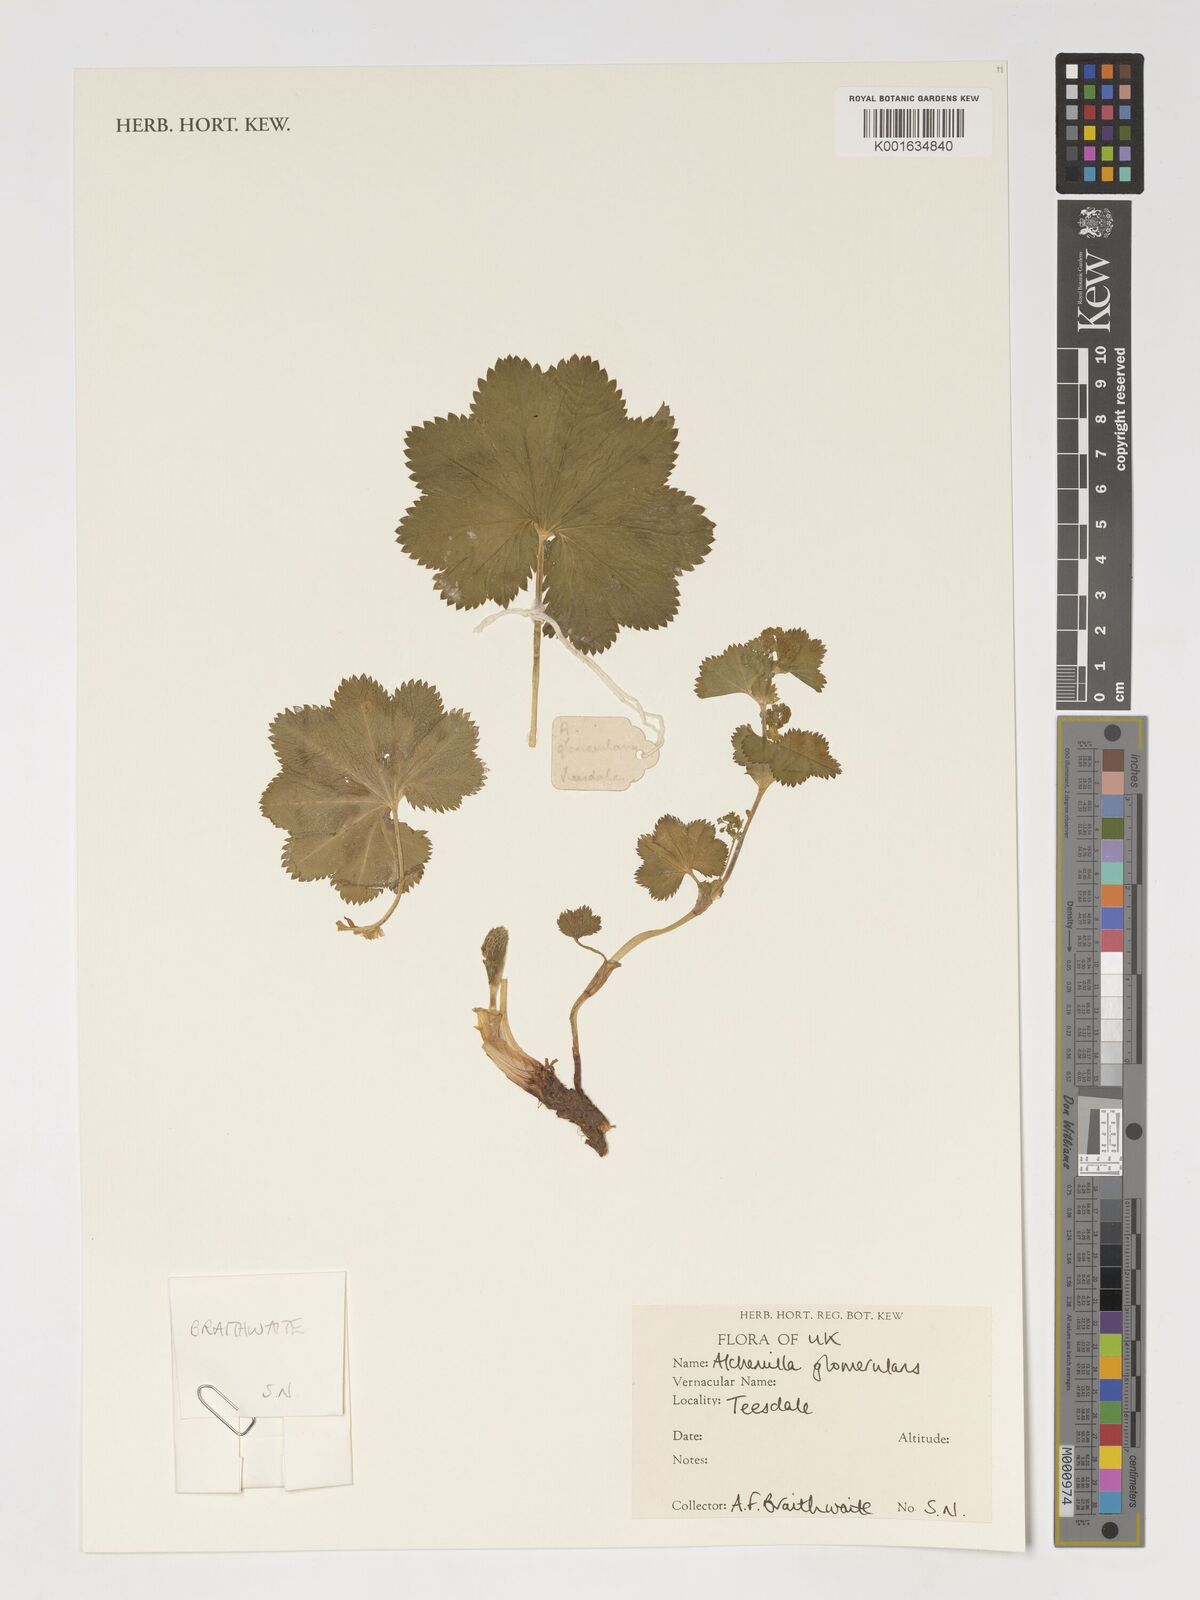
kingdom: Plantae
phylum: Tracheophyta
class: Magnoliopsida
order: Rosales
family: Rosaceae
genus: Alchemilla
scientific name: Alchemilla glomerulans
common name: Clustered lady's mantle
